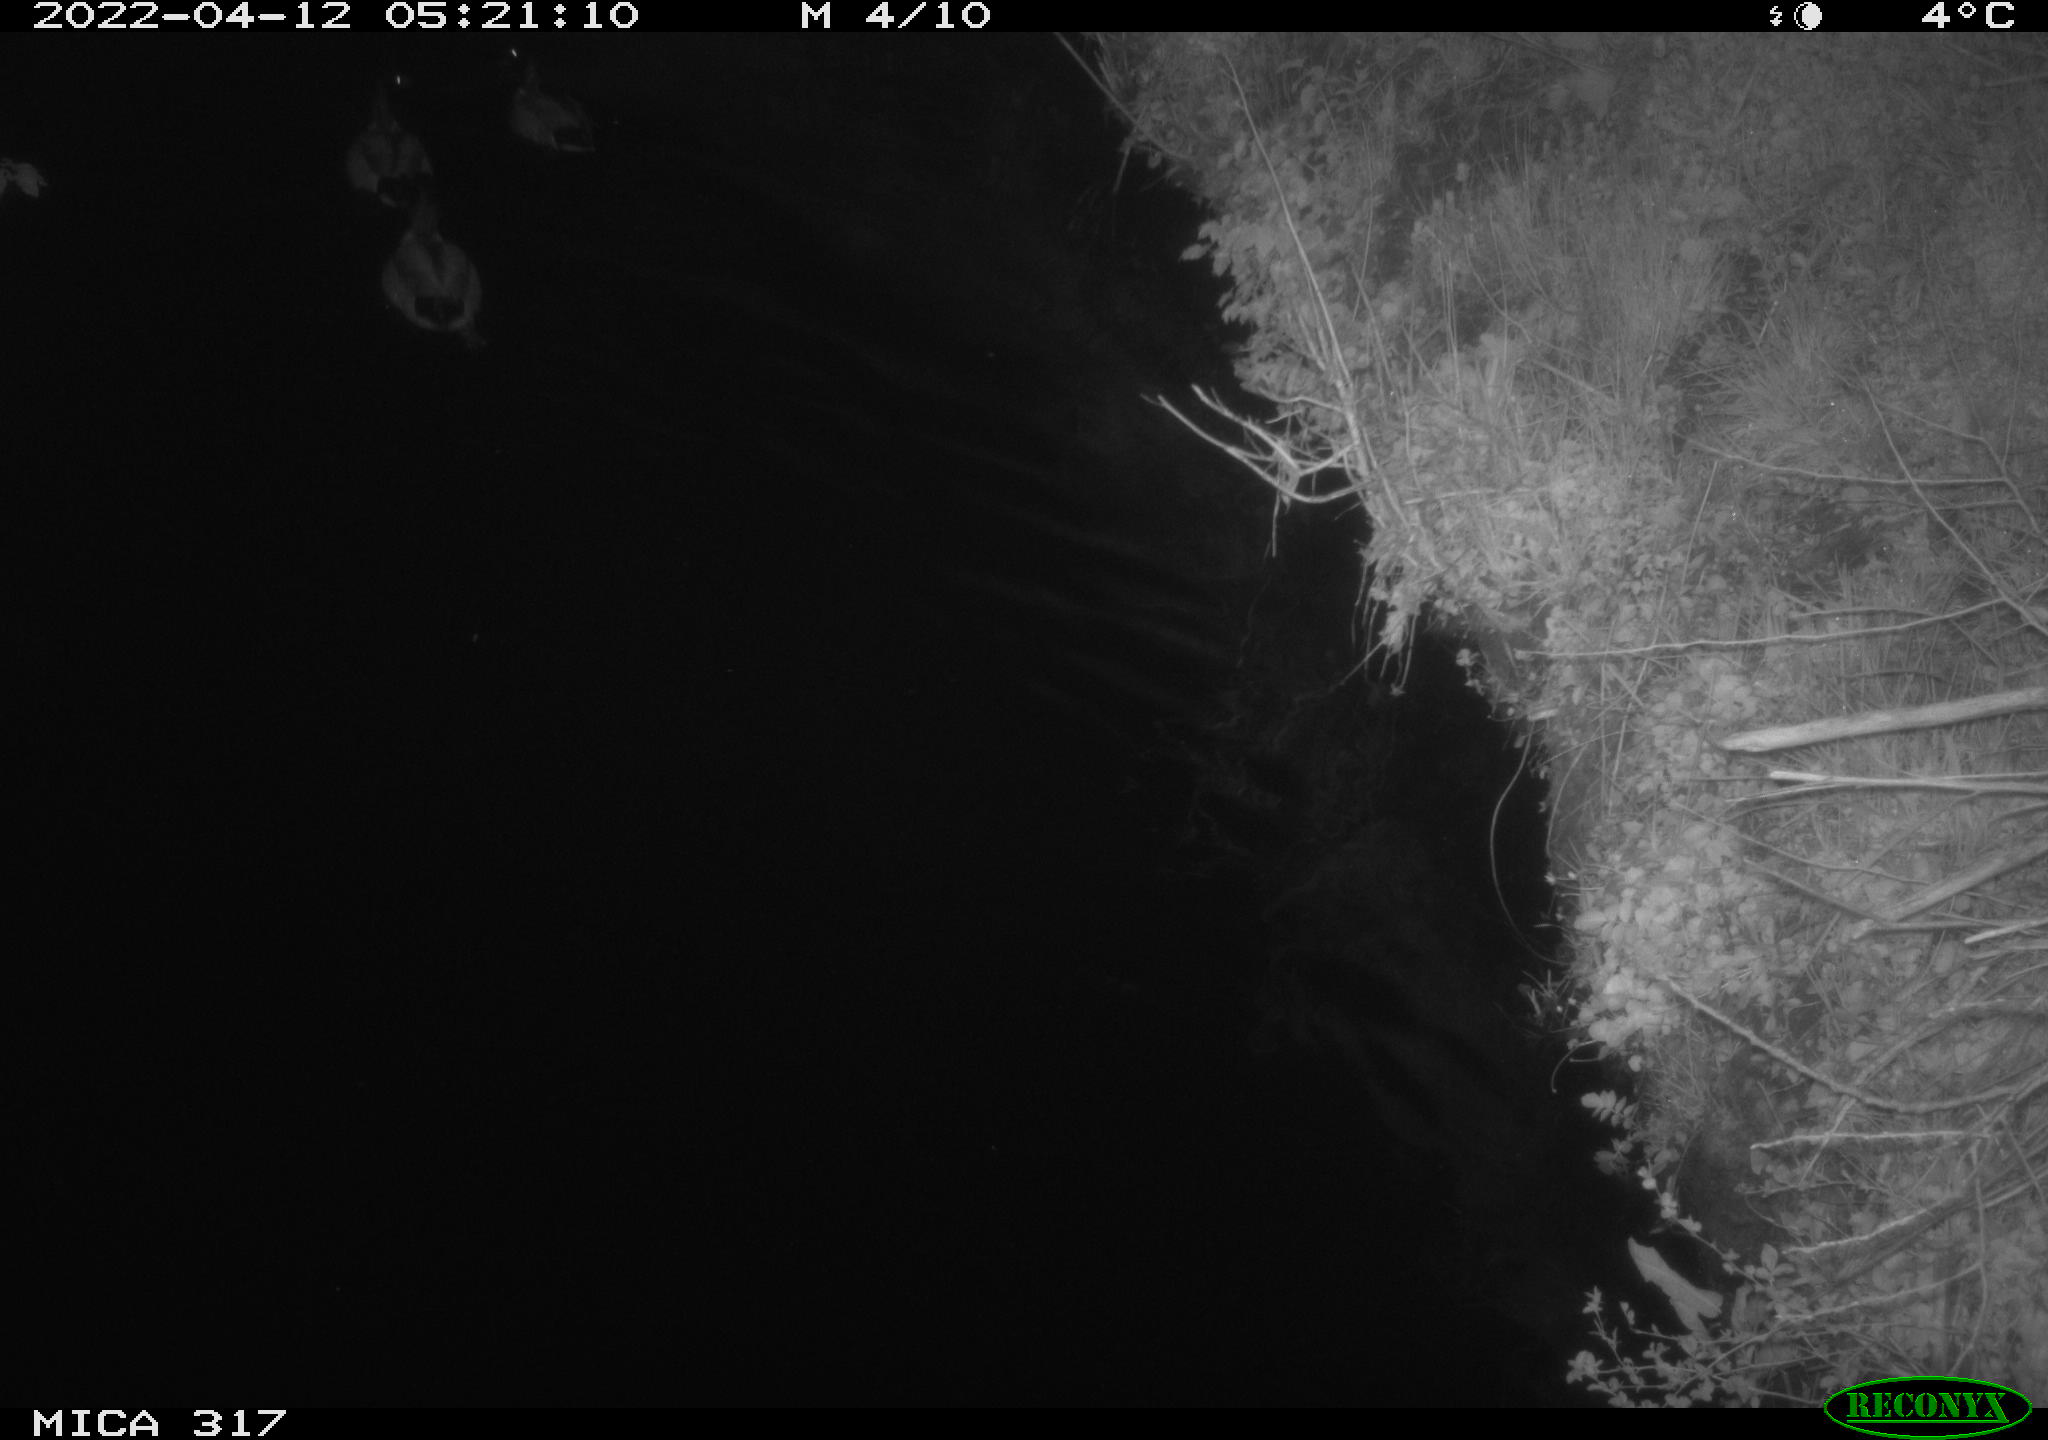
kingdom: Animalia
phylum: Chordata
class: Aves
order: Anseriformes
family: Anatidae
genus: Anas
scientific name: Anas platyrhynchos
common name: Mallard
